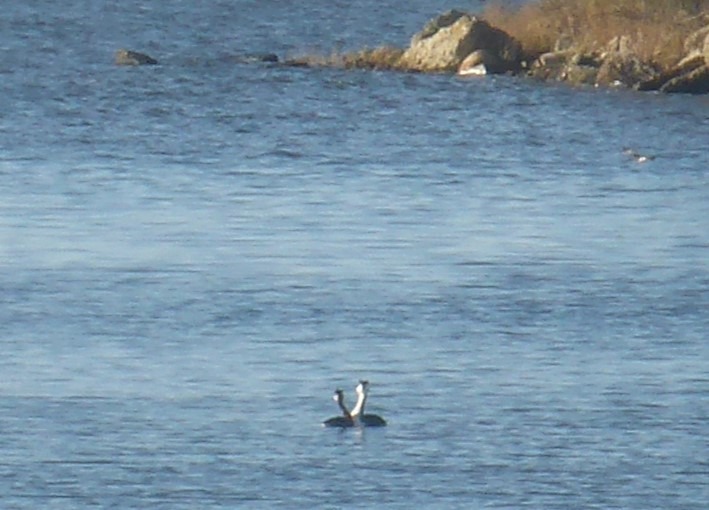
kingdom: Animalia
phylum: Chordata
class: Aves
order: Podicipediformes
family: Podicipedidae
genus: Podiceps
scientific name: Podiceps cristatus
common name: Toppet lappedykker
